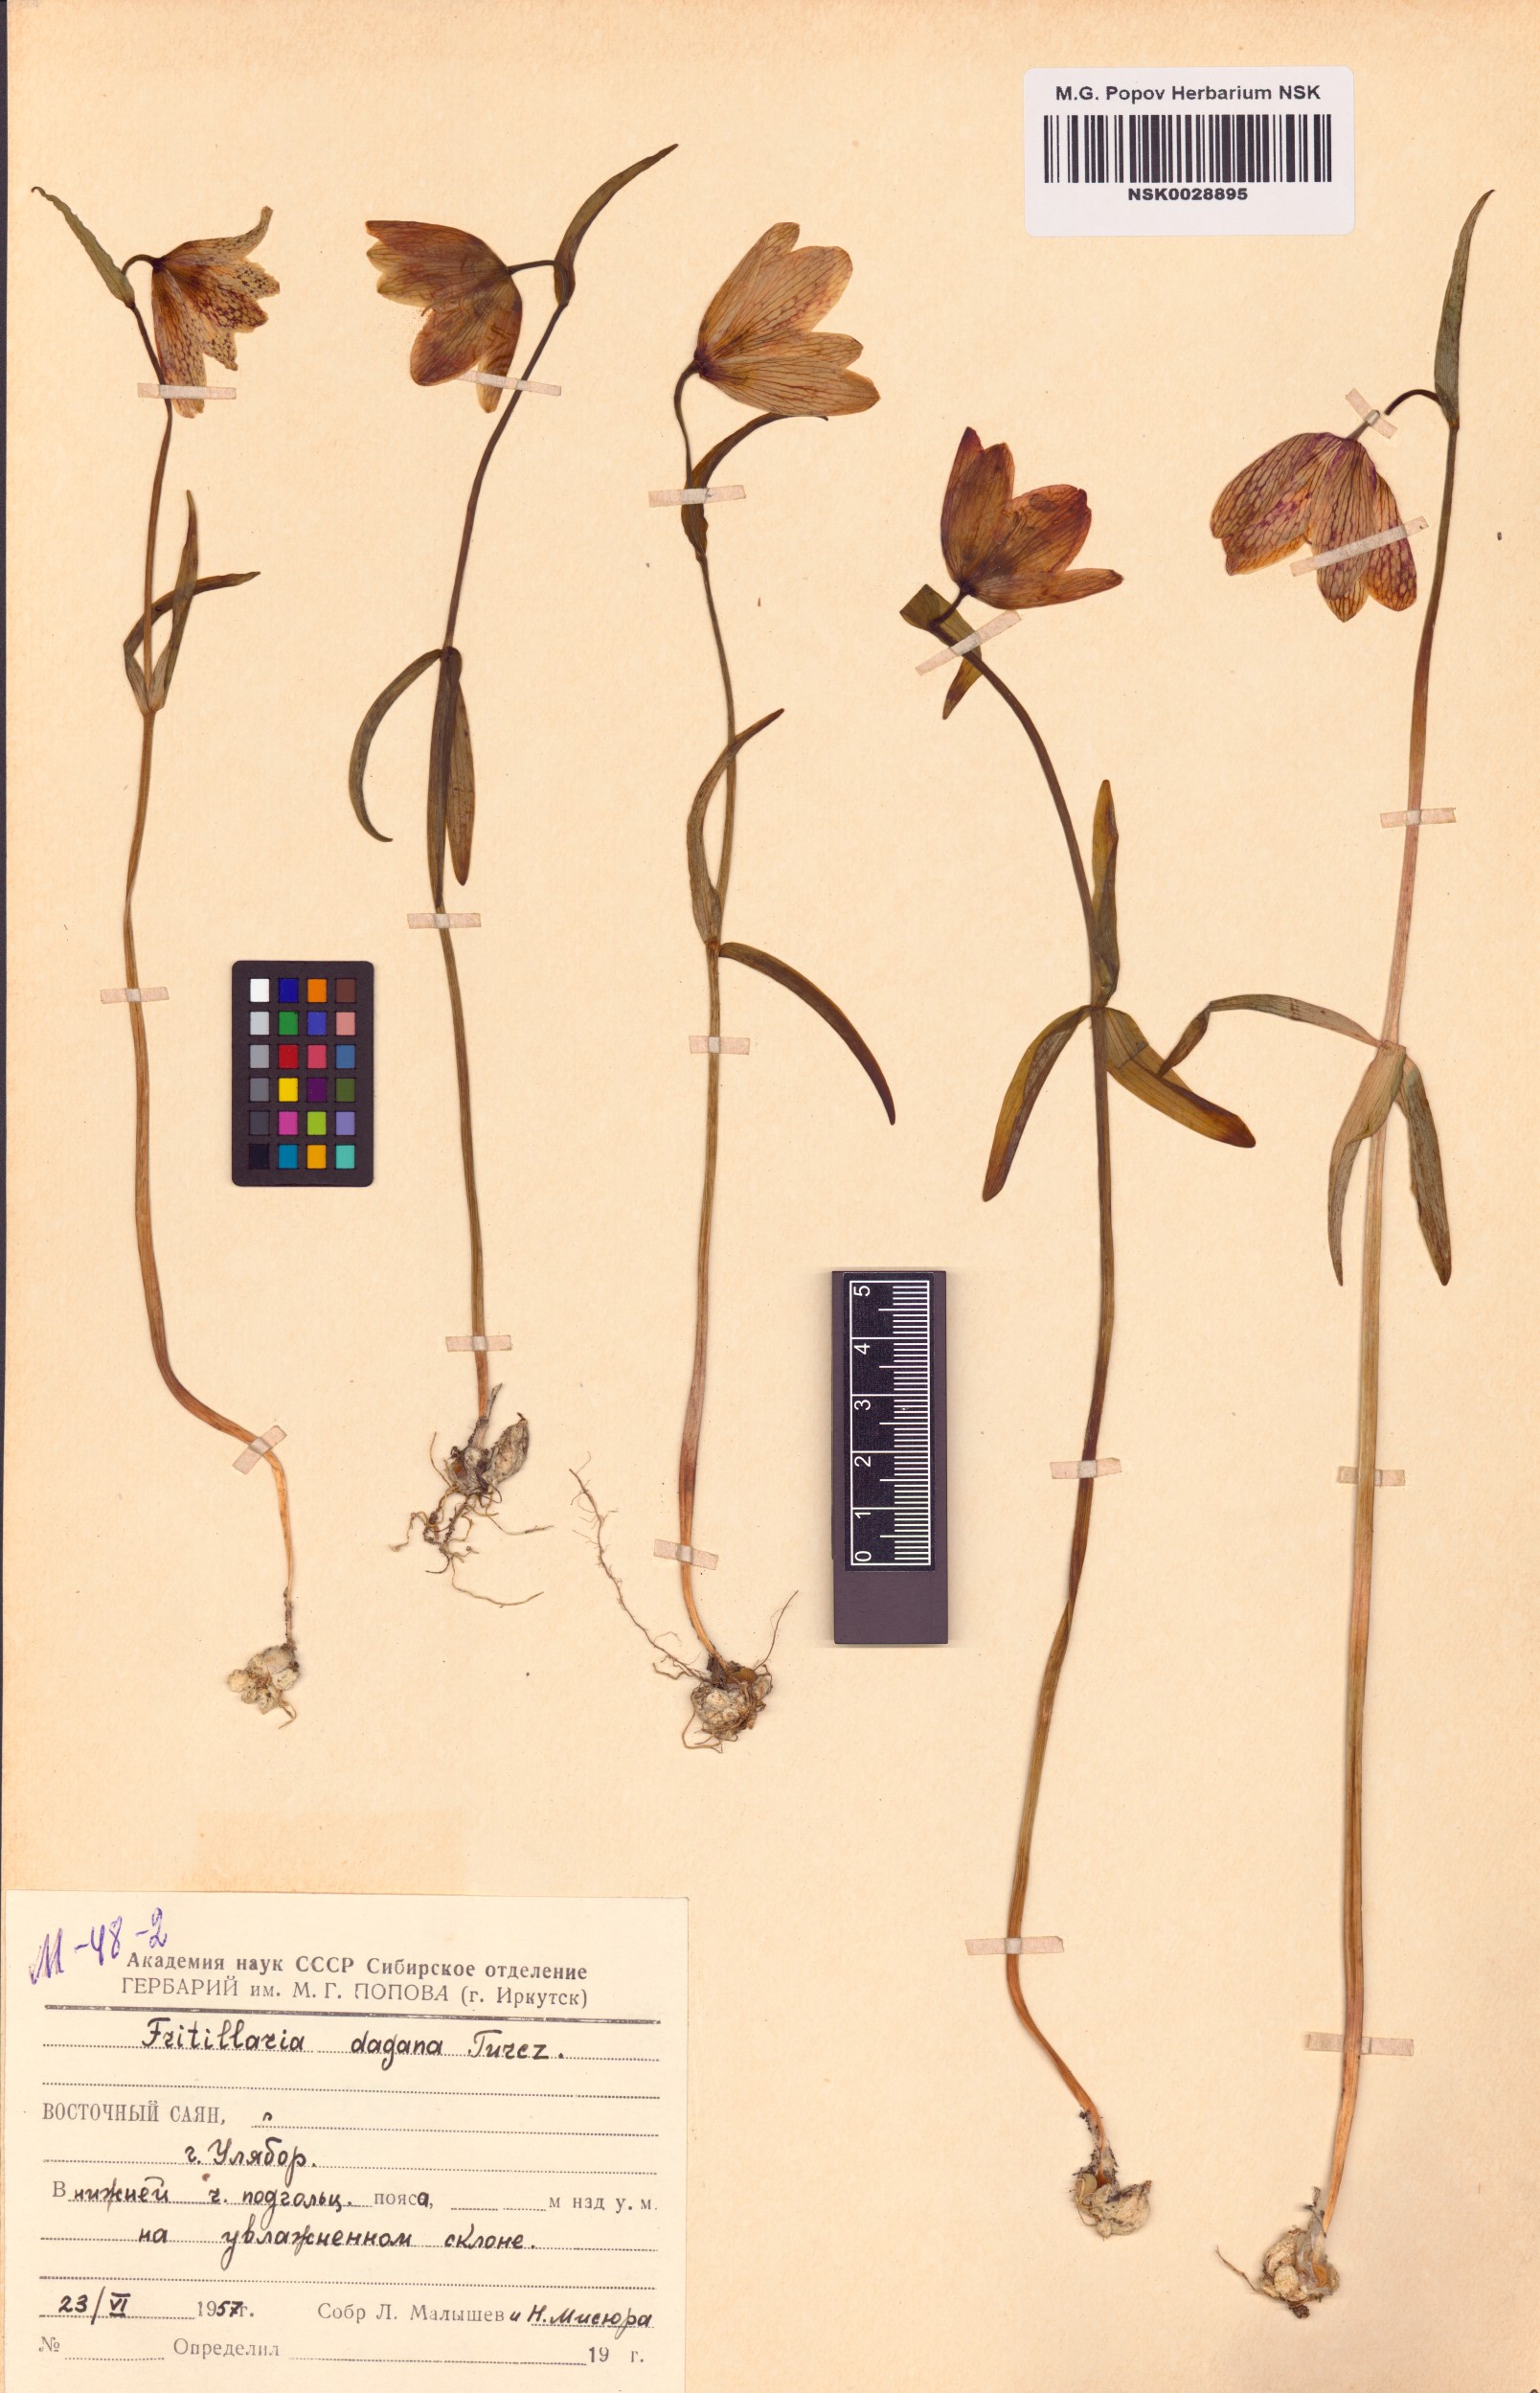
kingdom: Plantae
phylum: Tracheophyta
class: Liliopsida
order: Liliales
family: Liliaceae
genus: Fritillaria
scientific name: Fritillaria dagana
